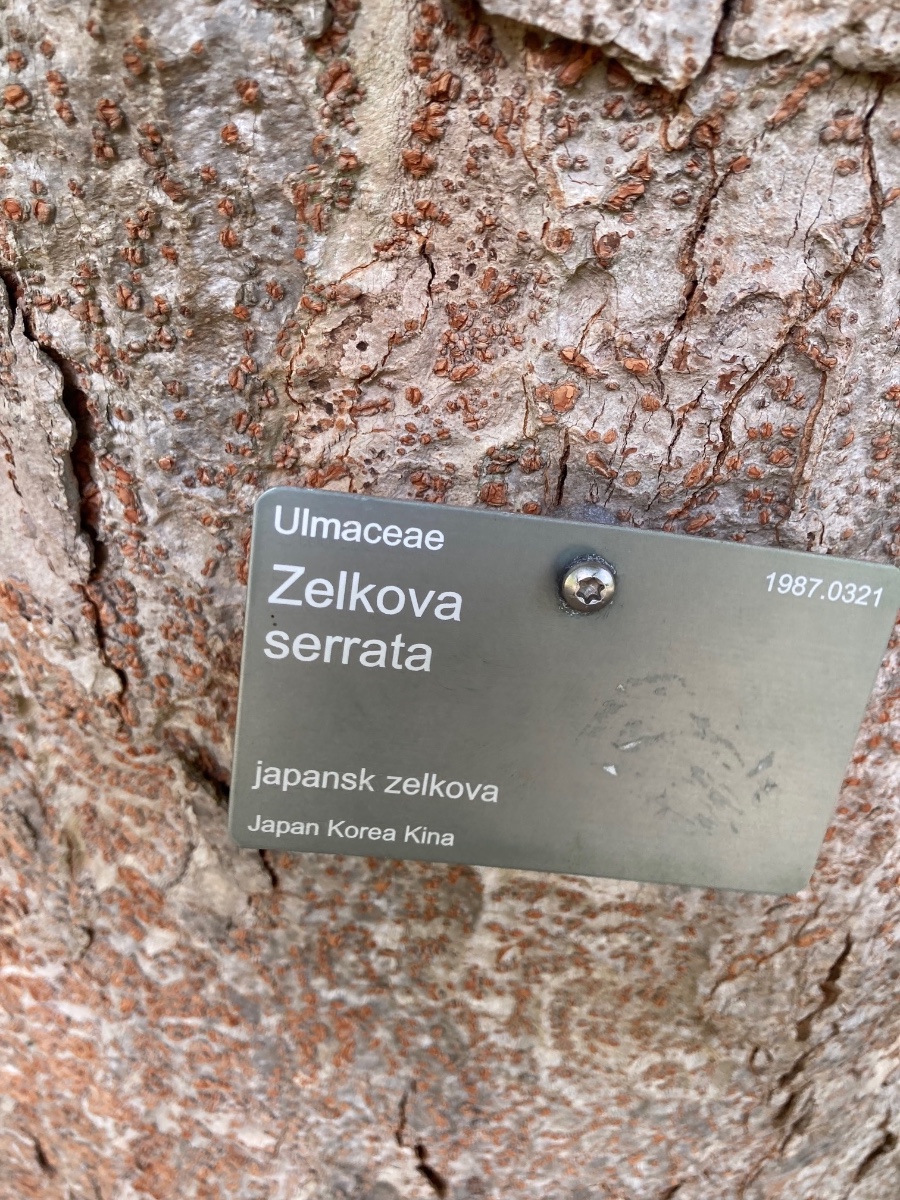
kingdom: Fungi
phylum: Basidiomycota
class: Agaricomycetes
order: Polyporales
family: Polyporaceae
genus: Ganoderma
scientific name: Ganoderma adspersum
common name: grov lakporesvamp
